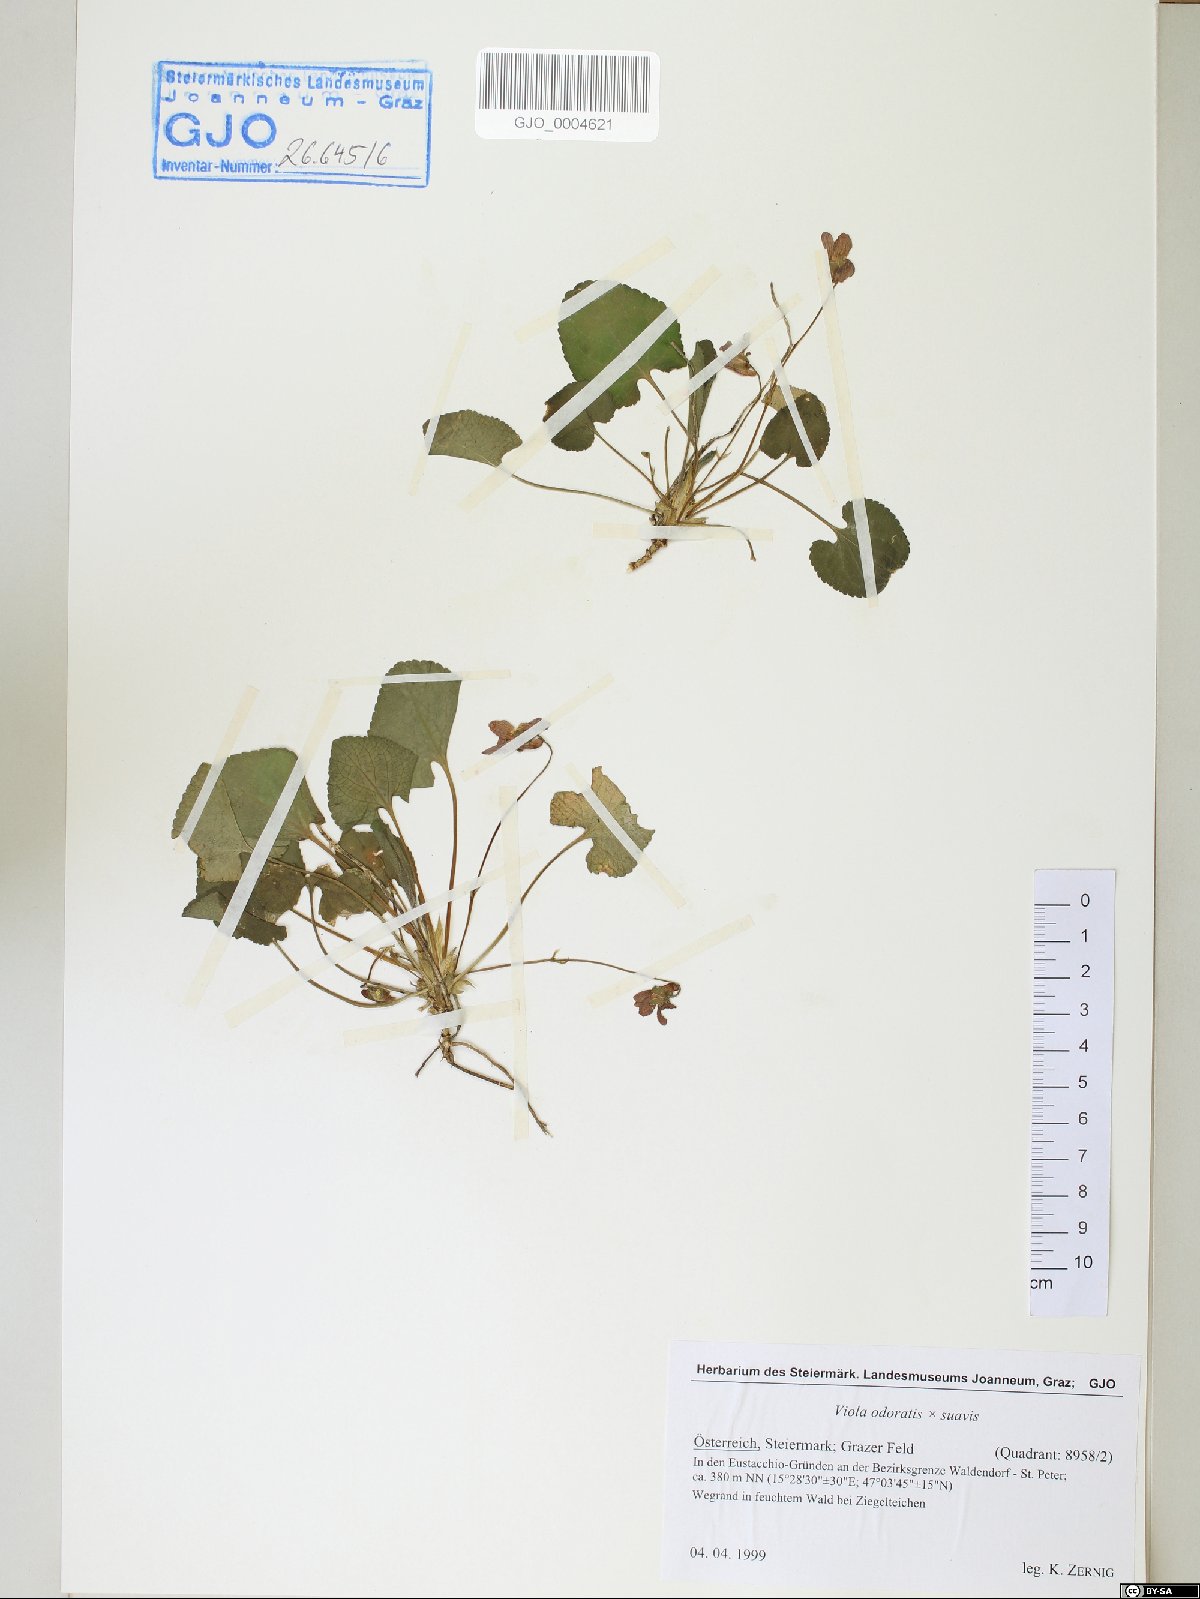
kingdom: Plantae
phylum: Tracheophyta
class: Magnoliopsida
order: Malpighiales
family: Violaceae
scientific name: Violaceae
